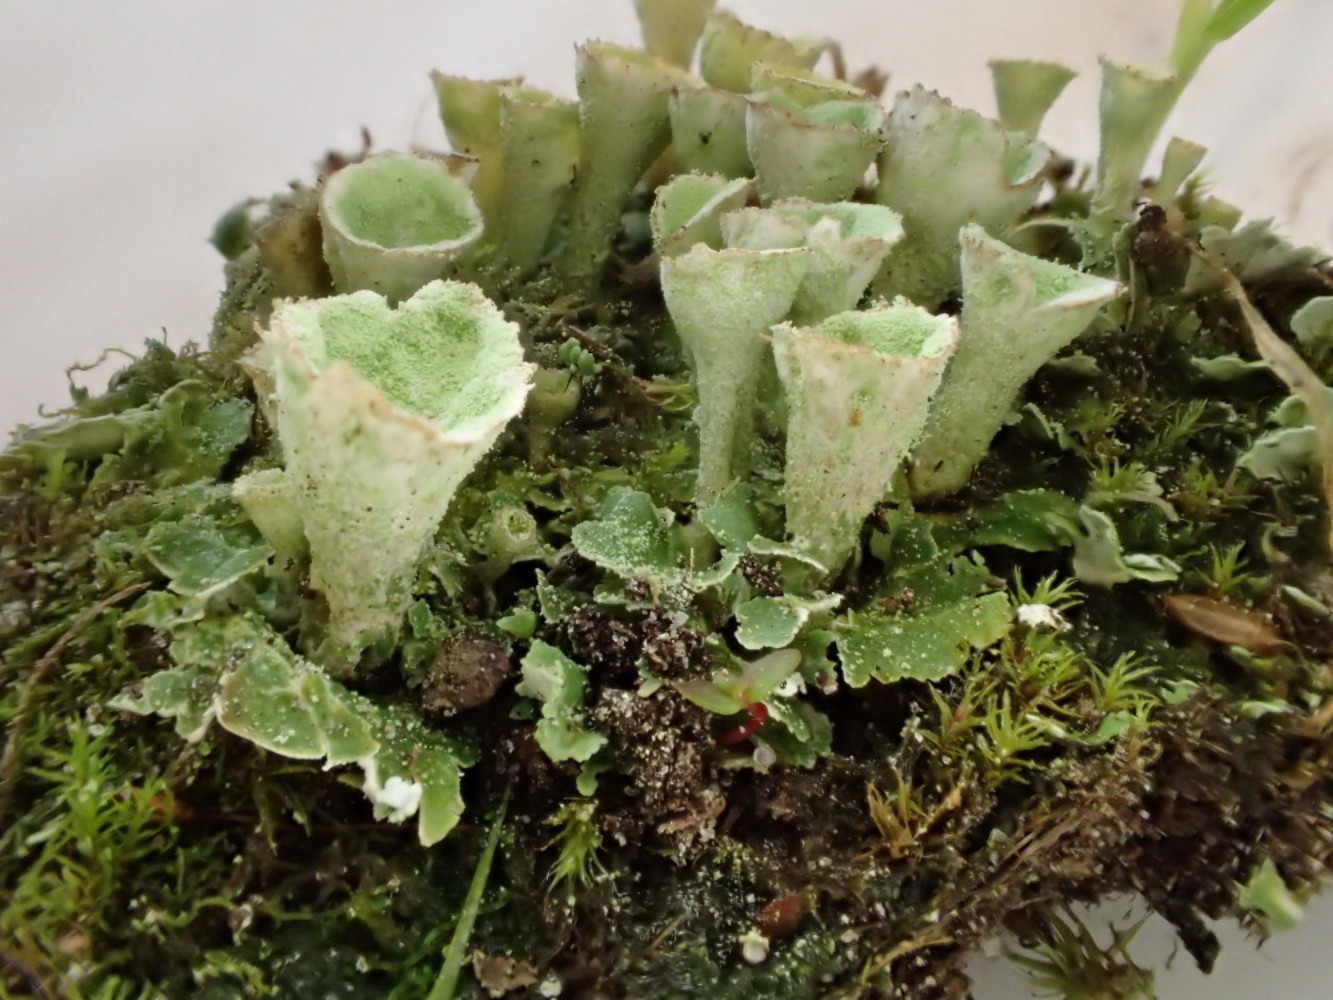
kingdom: Fungi
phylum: Ascomycota
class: Lecanoromycetes
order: Lecanorales
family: Cladoniaceae
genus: Cladonia
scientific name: Cladonia humilis
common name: lav bægerlav
